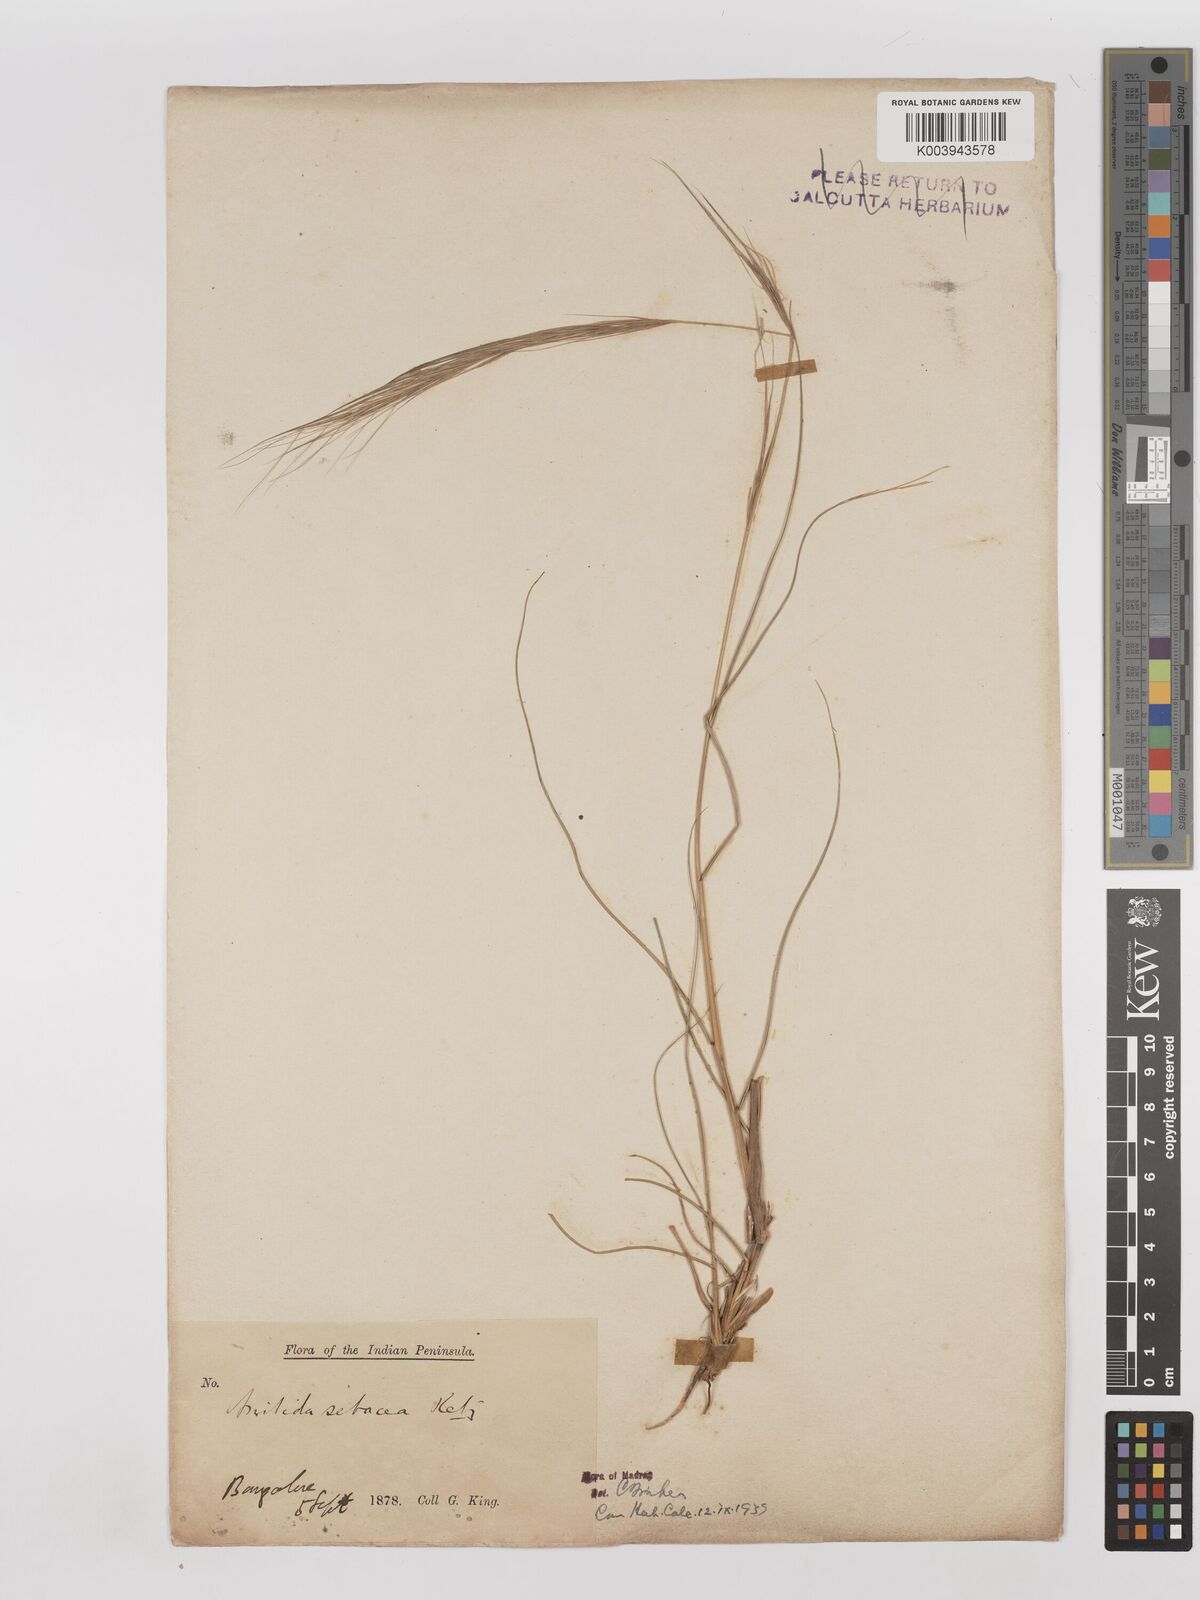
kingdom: Plantae
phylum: Tracheophyta
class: Liliopsida
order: Poales
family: Poaceae
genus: Aristida
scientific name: Aristida setacea
